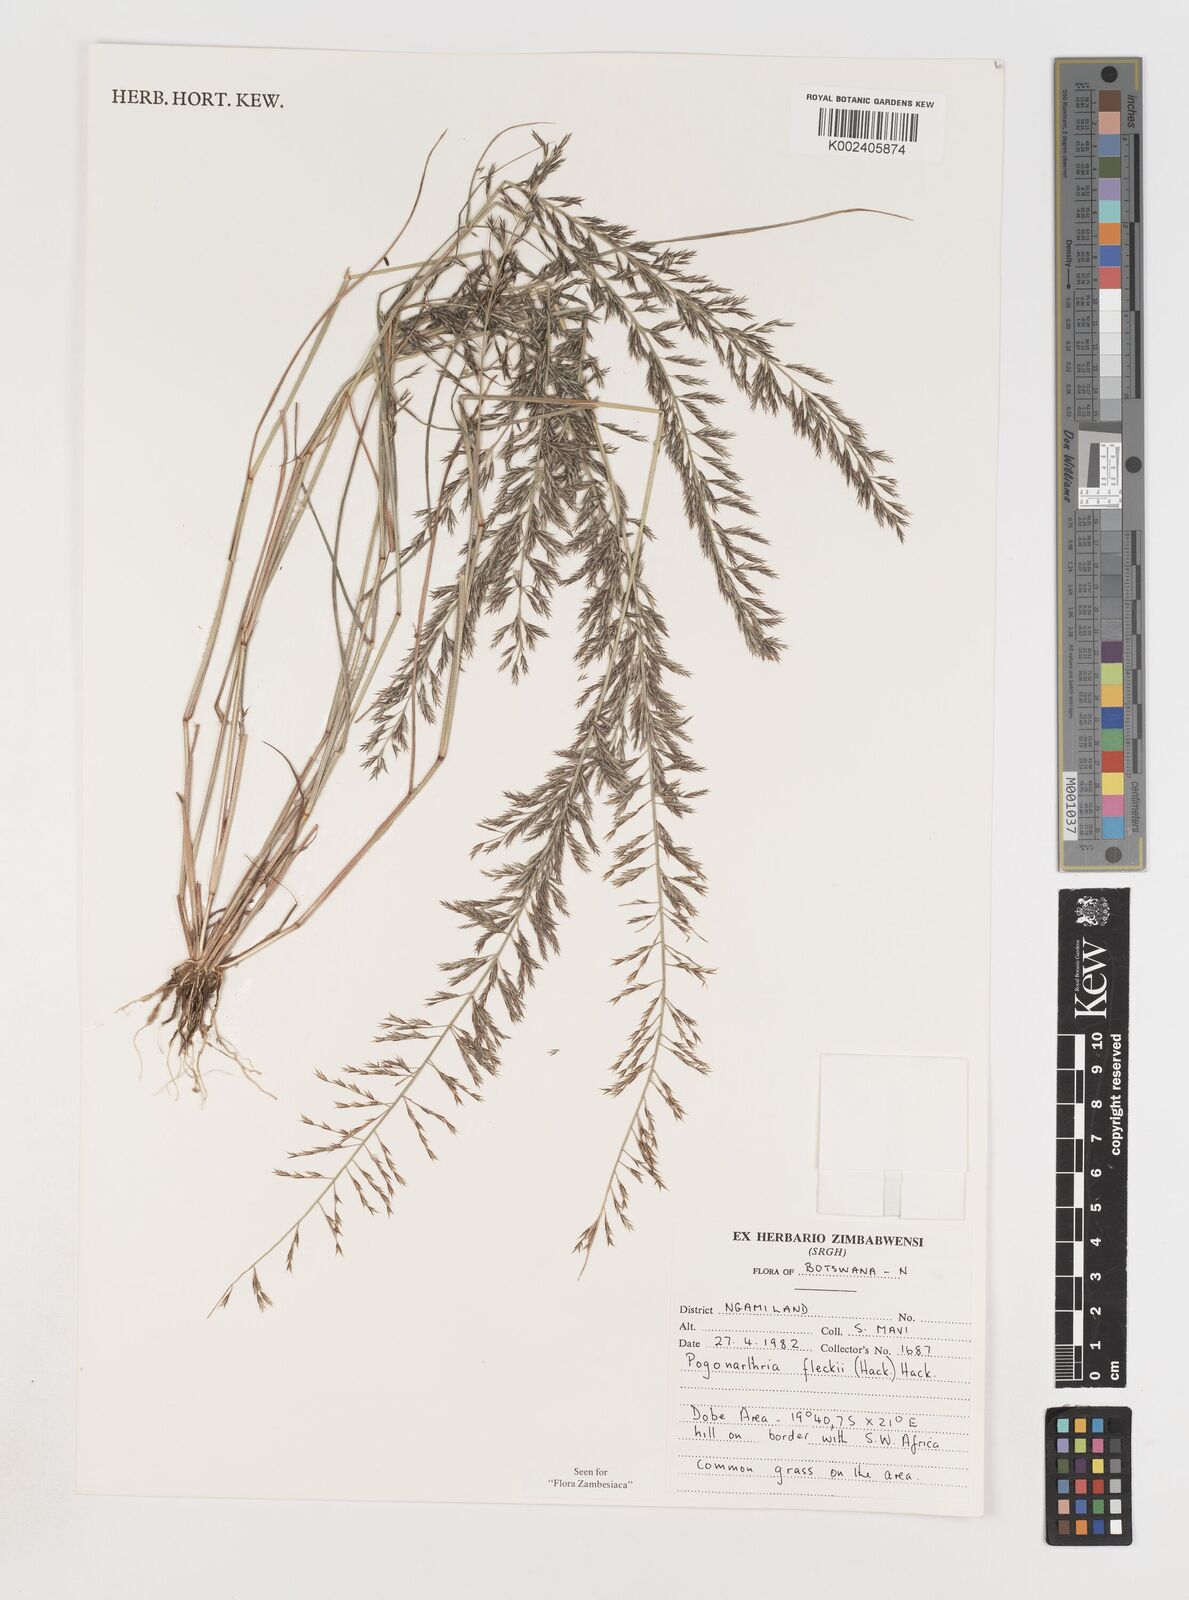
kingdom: Plantae
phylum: Tracheophyta
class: Liliopsida
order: Poales
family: Poaceae
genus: Pogonarthria
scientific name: Pogonarthria fleckii
